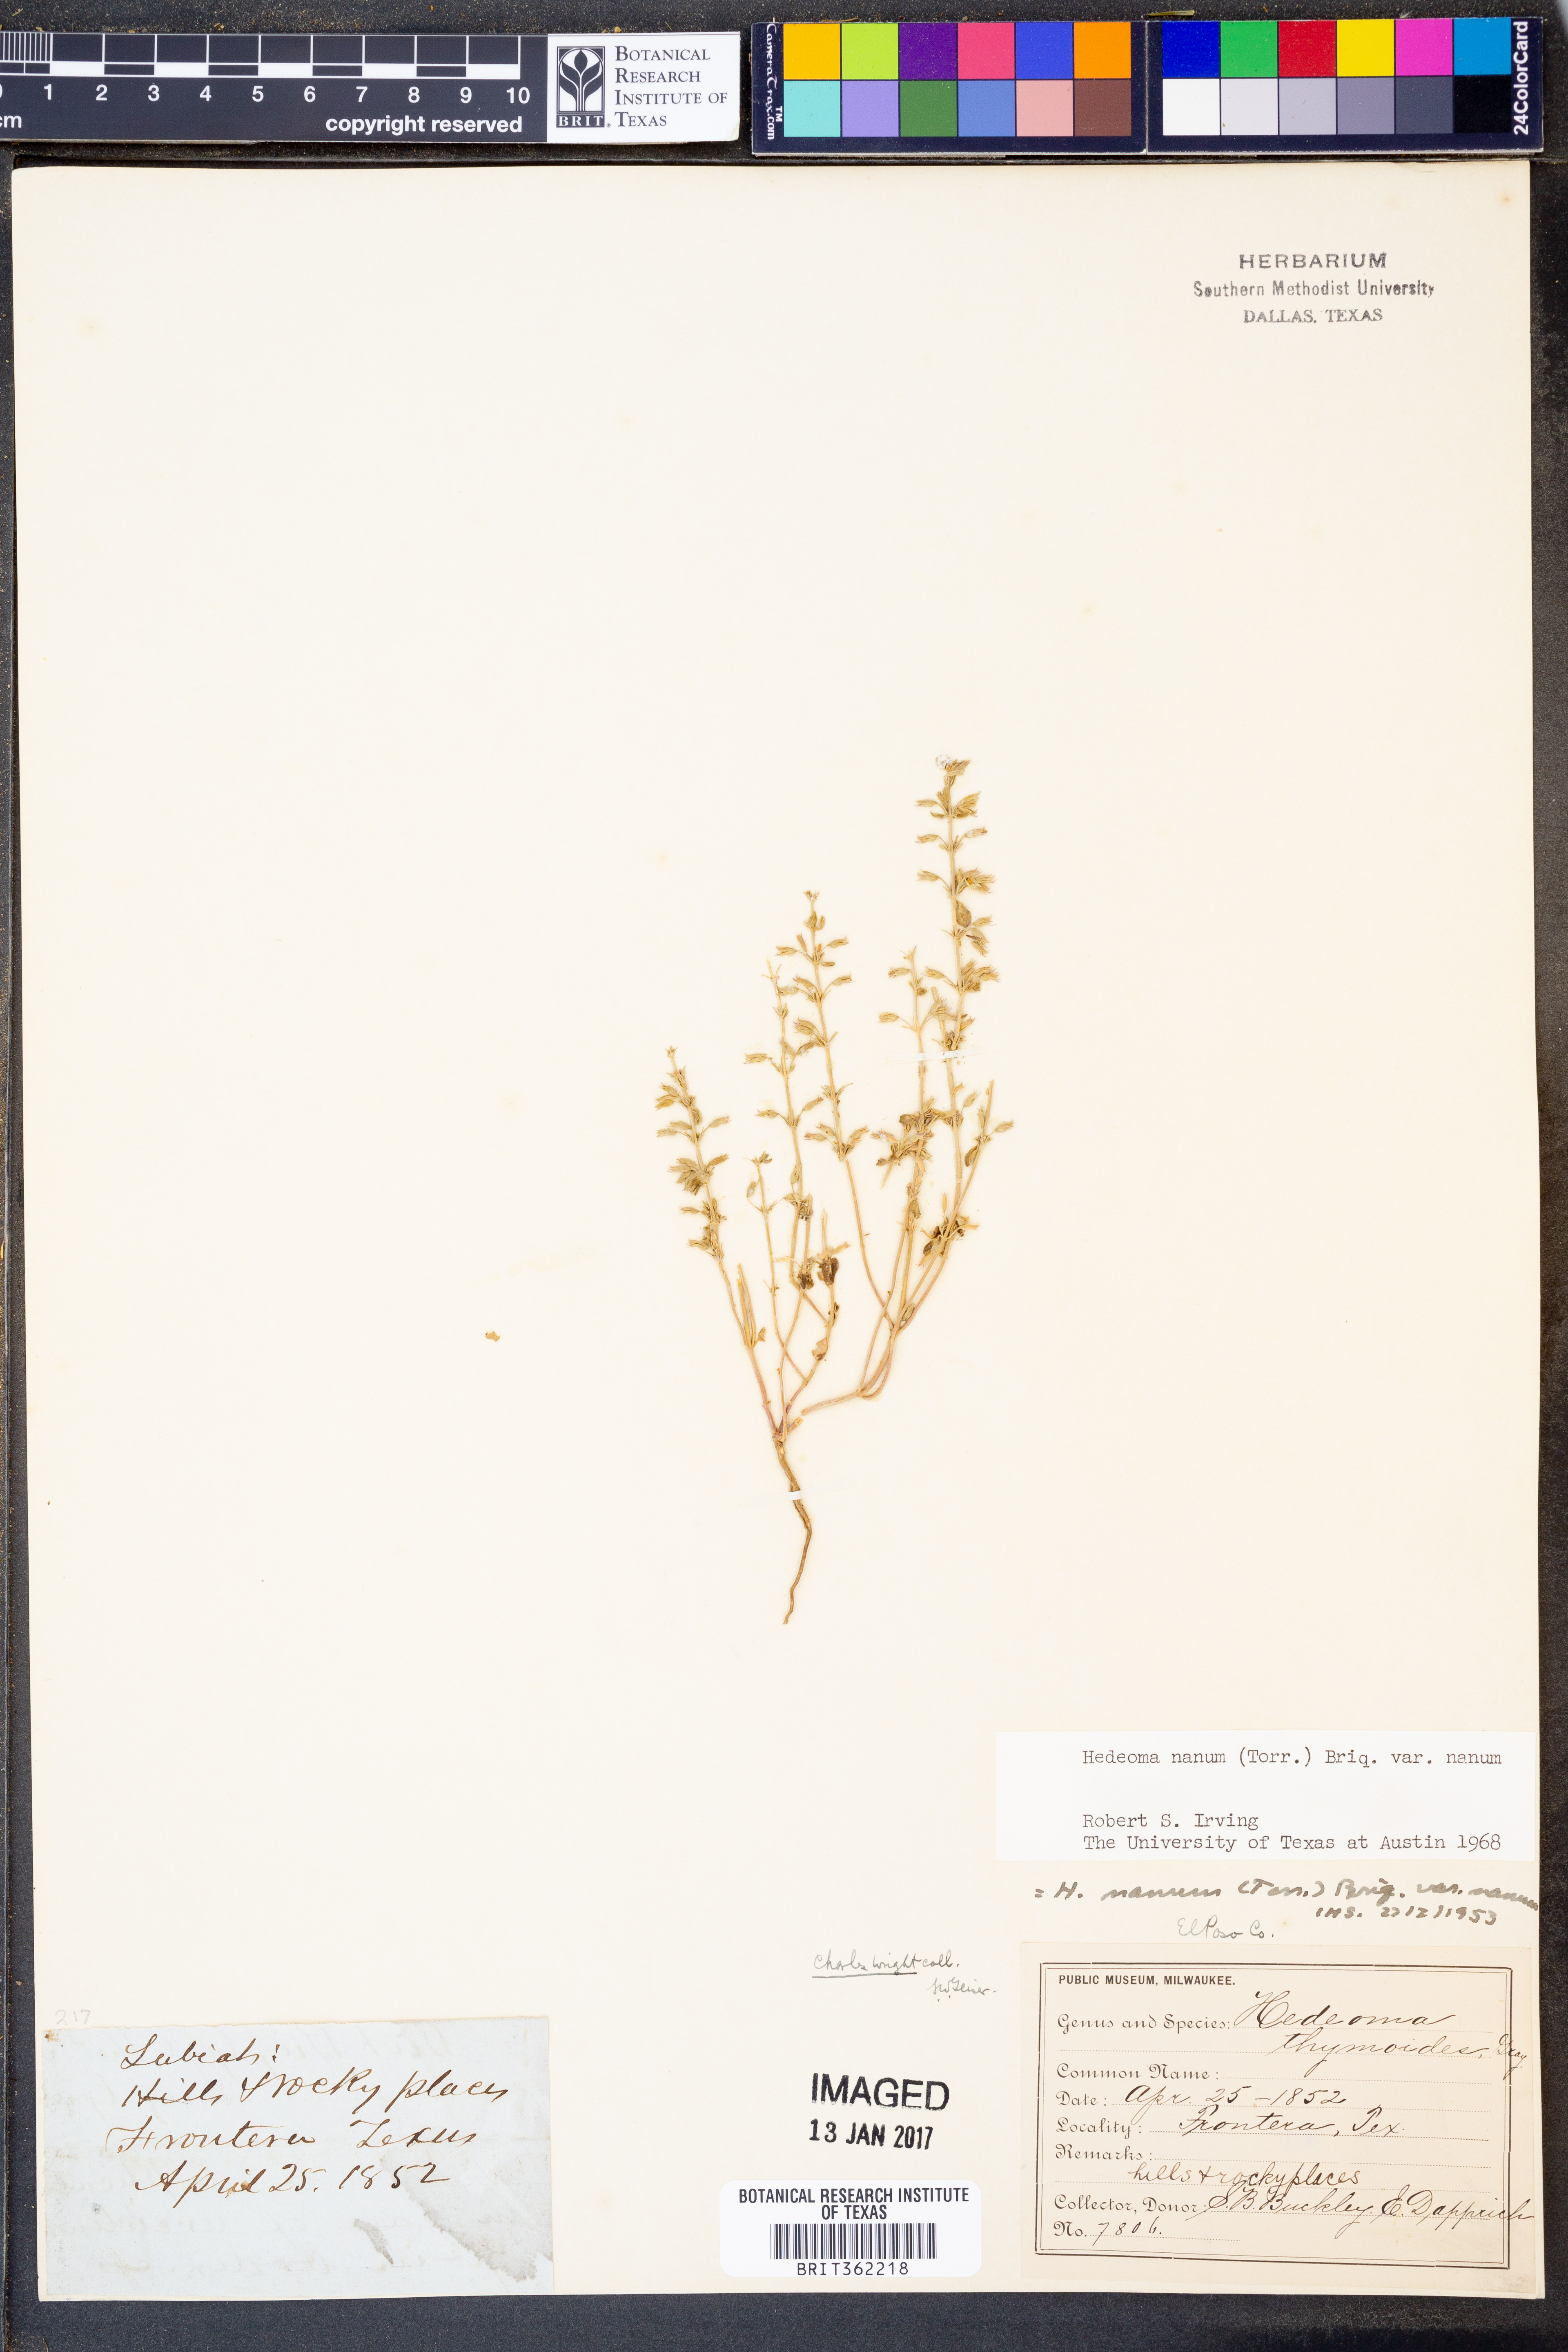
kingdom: Plantae
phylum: Tracheophyta
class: Magnoliopsida
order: Lamiales
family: Lamiaceae
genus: Hedeoma
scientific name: Hedeoma nana
